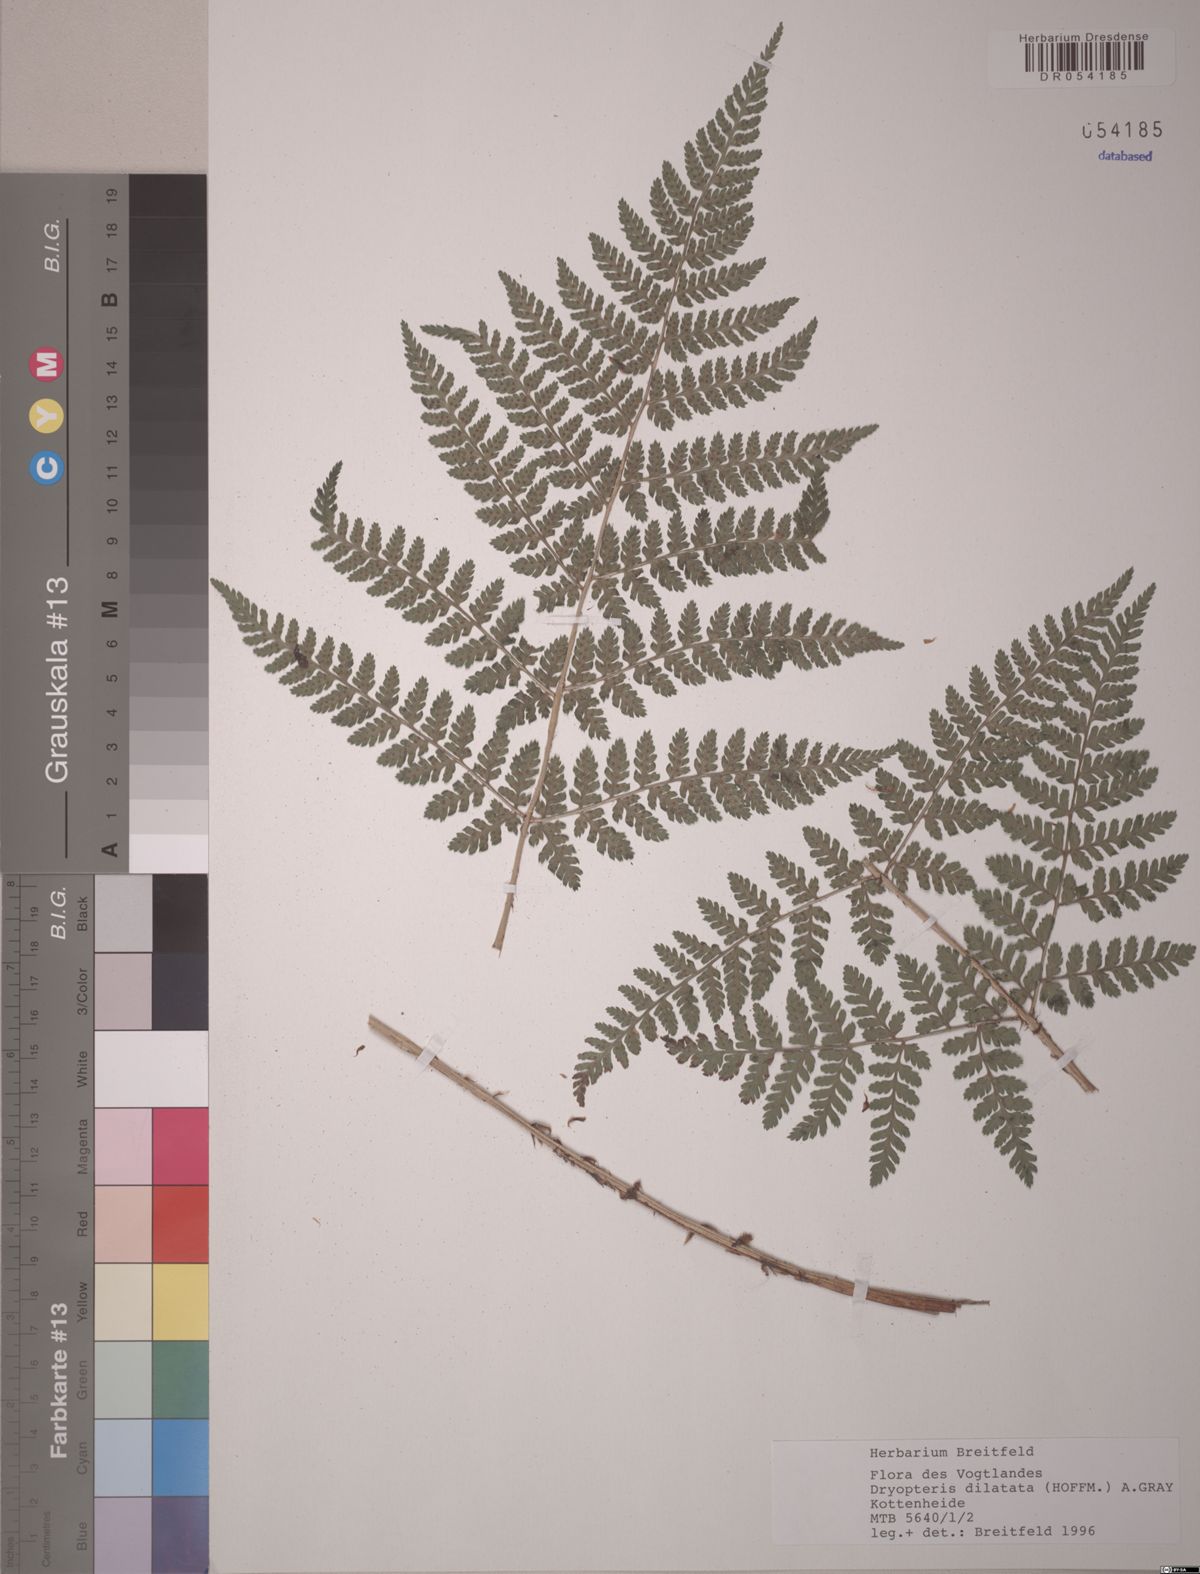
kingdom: Plantae
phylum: Tracheophyta
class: Polypodiopsida
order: Polypodiales
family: Dryopteridaceae
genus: Dryopteris
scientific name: Dryopteris dilatata
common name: Broad buckler-fern
